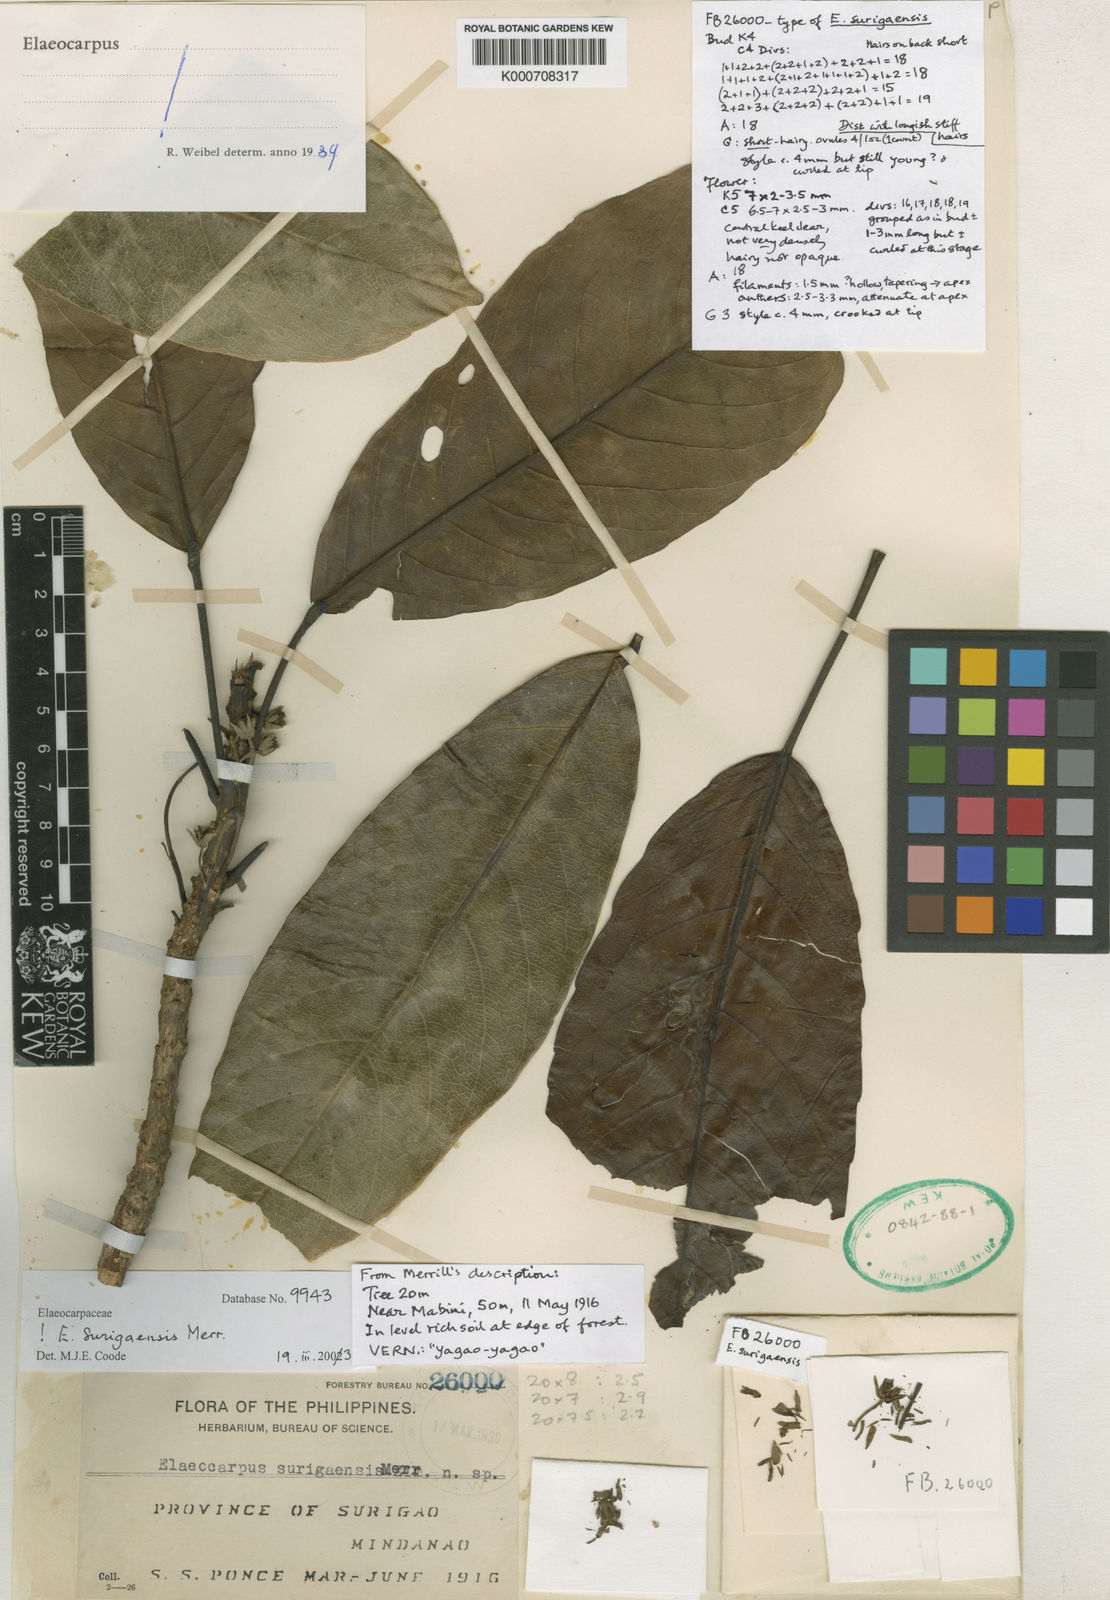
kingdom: Plantae
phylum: Tracheophyta
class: Magnoliopsida
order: Oxalidales
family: Elaeocarpaceae
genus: Elaeocarpus
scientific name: Elaeocarpus surigaensis
